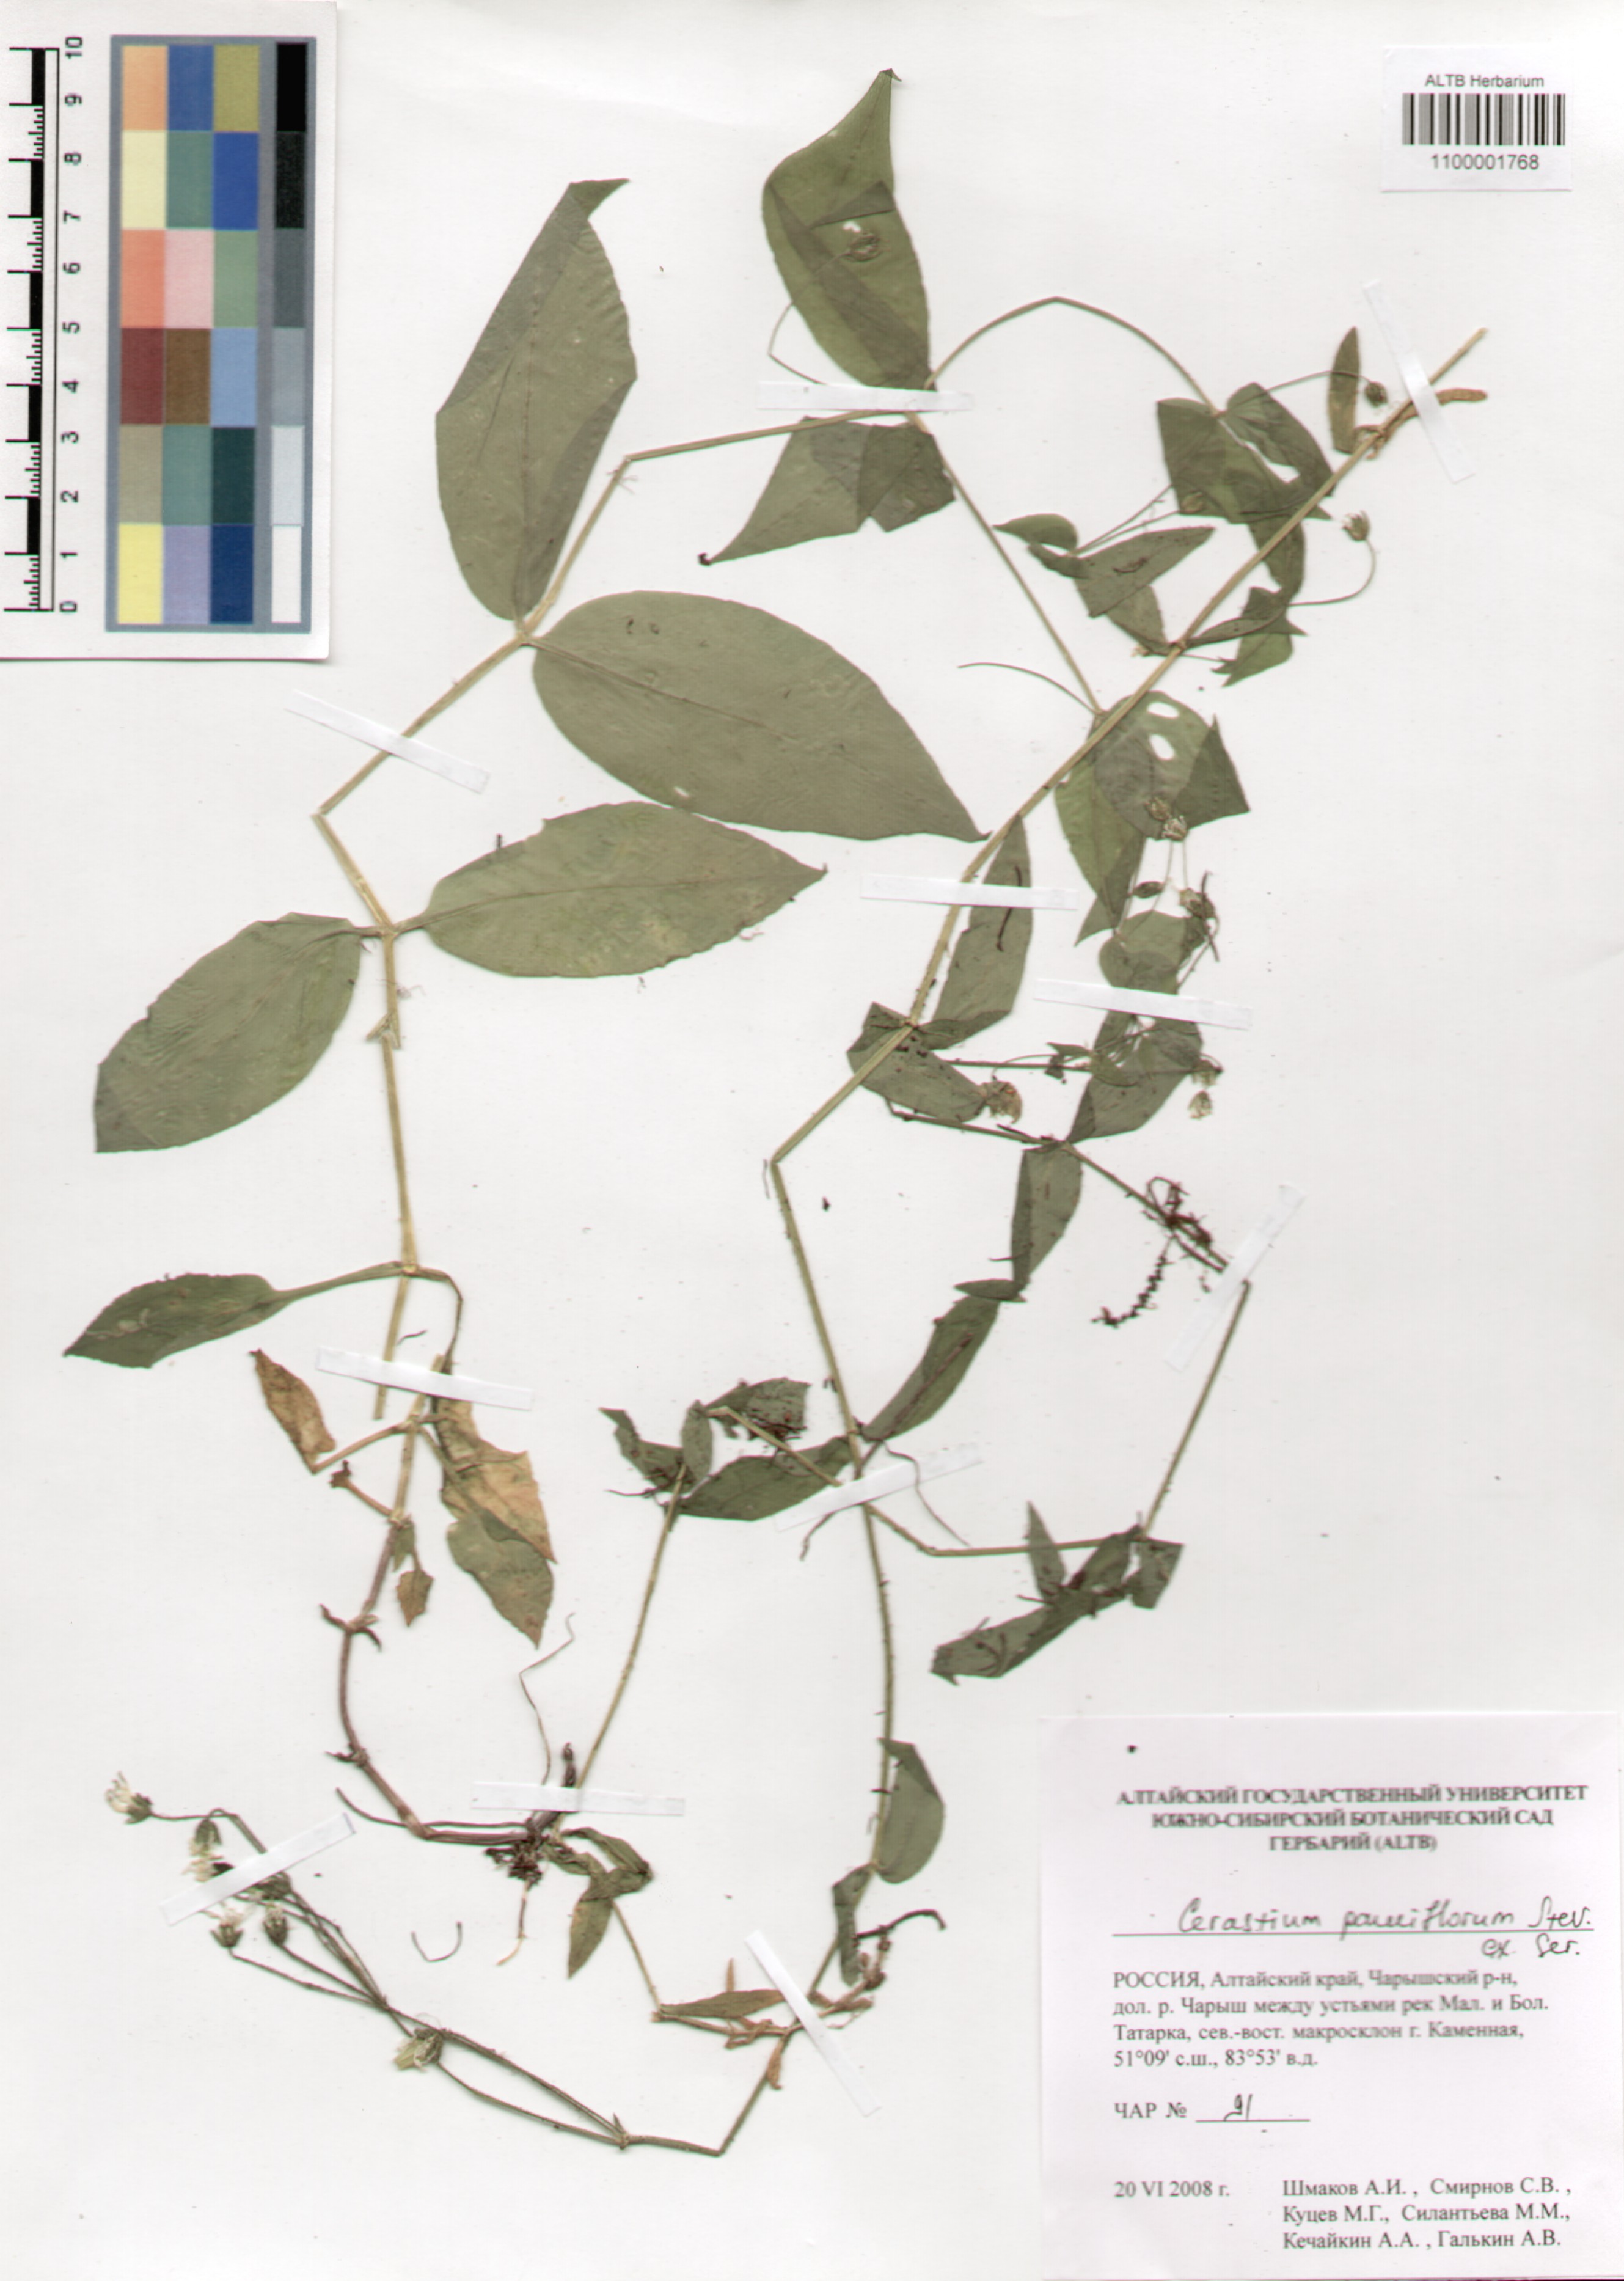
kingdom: Plantae
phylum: Tracheophyta
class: Magnoliopsida
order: Caryophyllales
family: Caryophyllaceae
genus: Cerastium
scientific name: Cerastium pauciflorum
